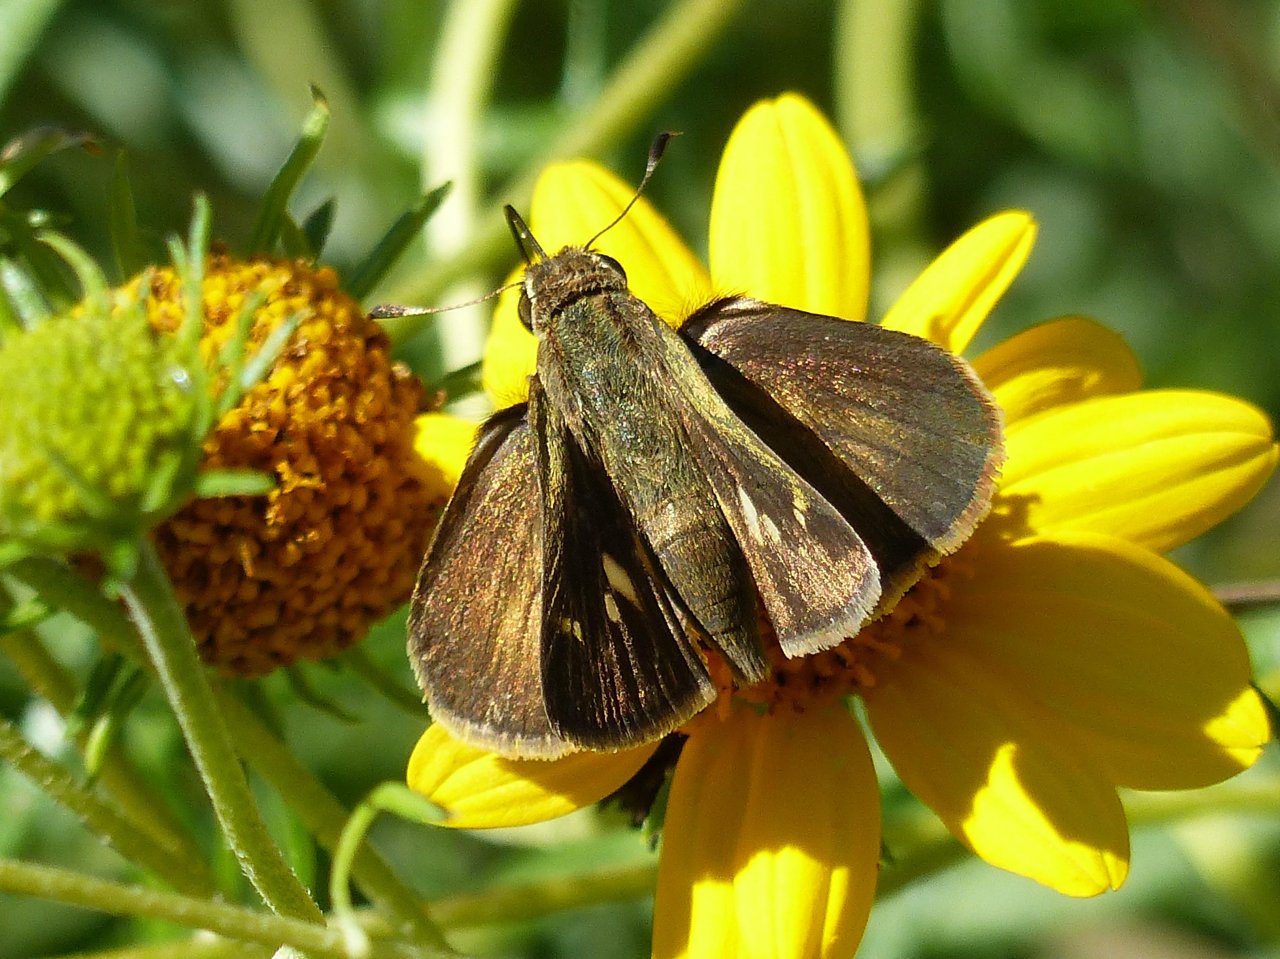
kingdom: Animalia
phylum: Arthropoda
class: Insecta
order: Lepidoptera
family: Hesperiidae
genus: Wallengrenia
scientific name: Wallengrenia otho
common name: Southern Broken-Dash
